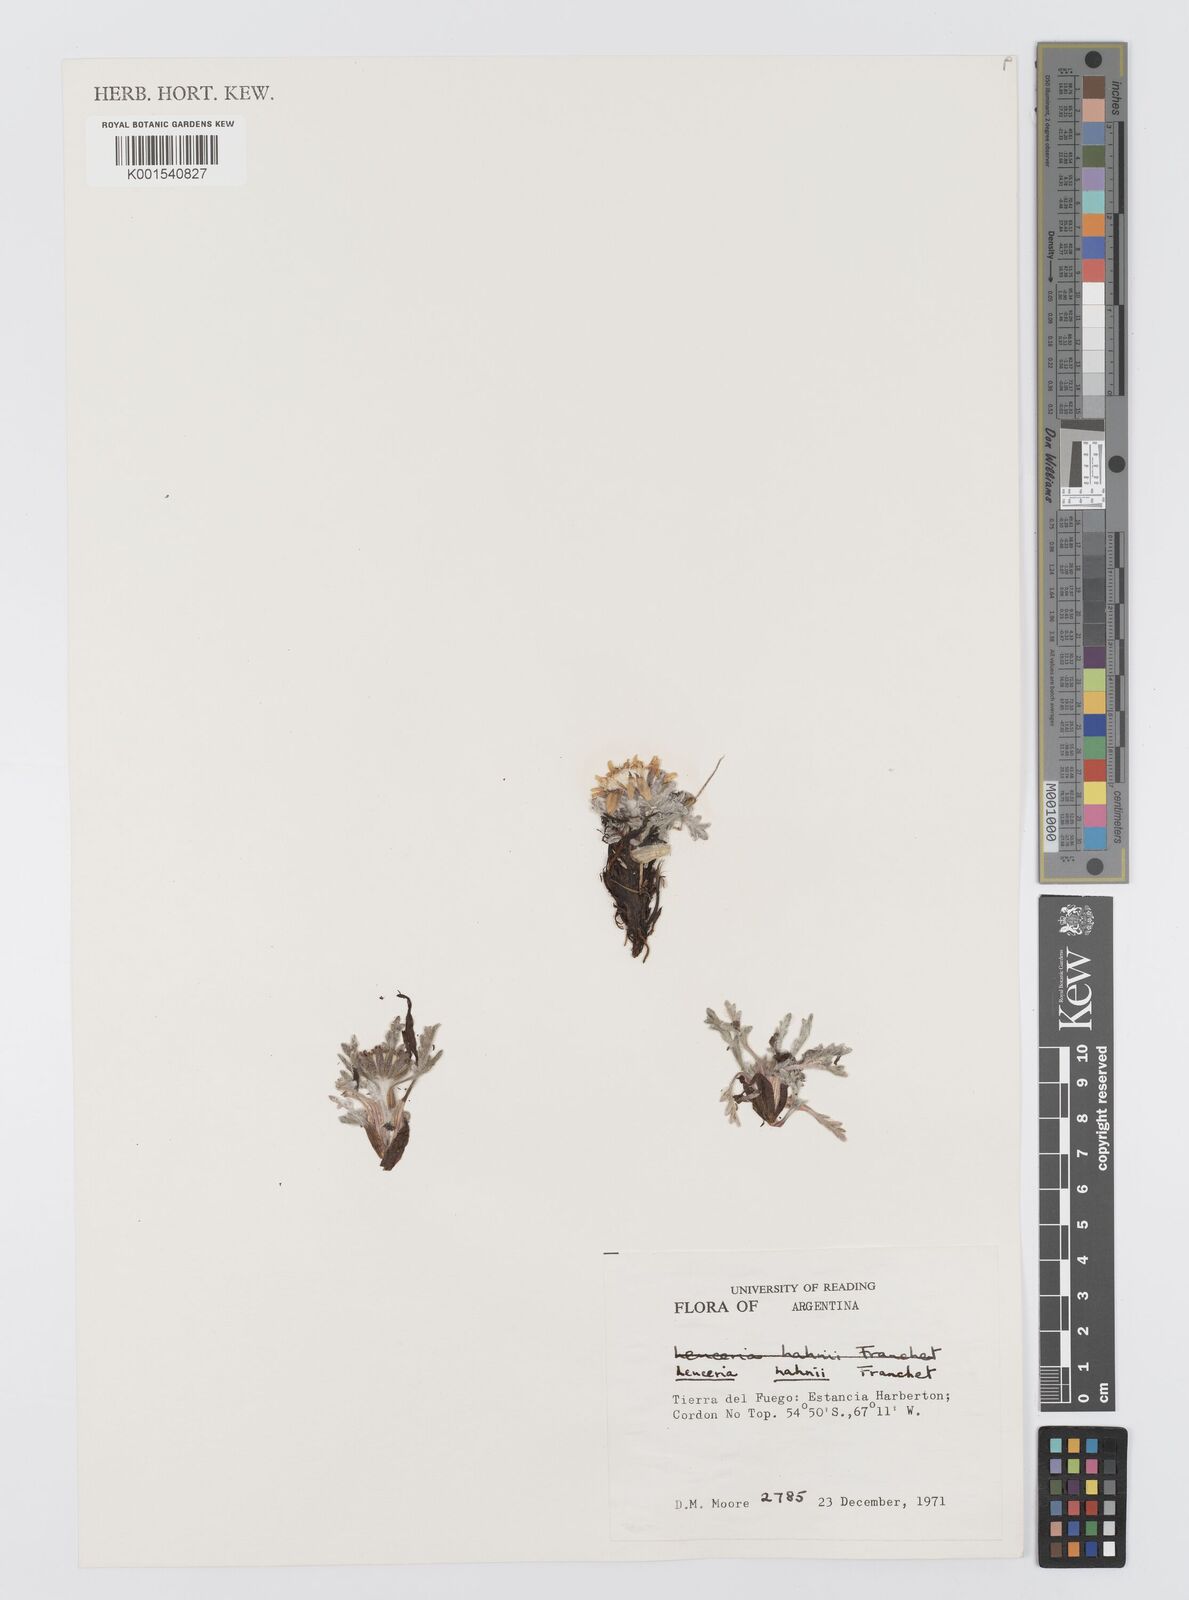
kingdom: Plantae
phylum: Tracheophyta
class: Magnoliopsida
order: Asterales
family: Asteraceae
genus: Leucheria
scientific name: Leucheria hahnii
